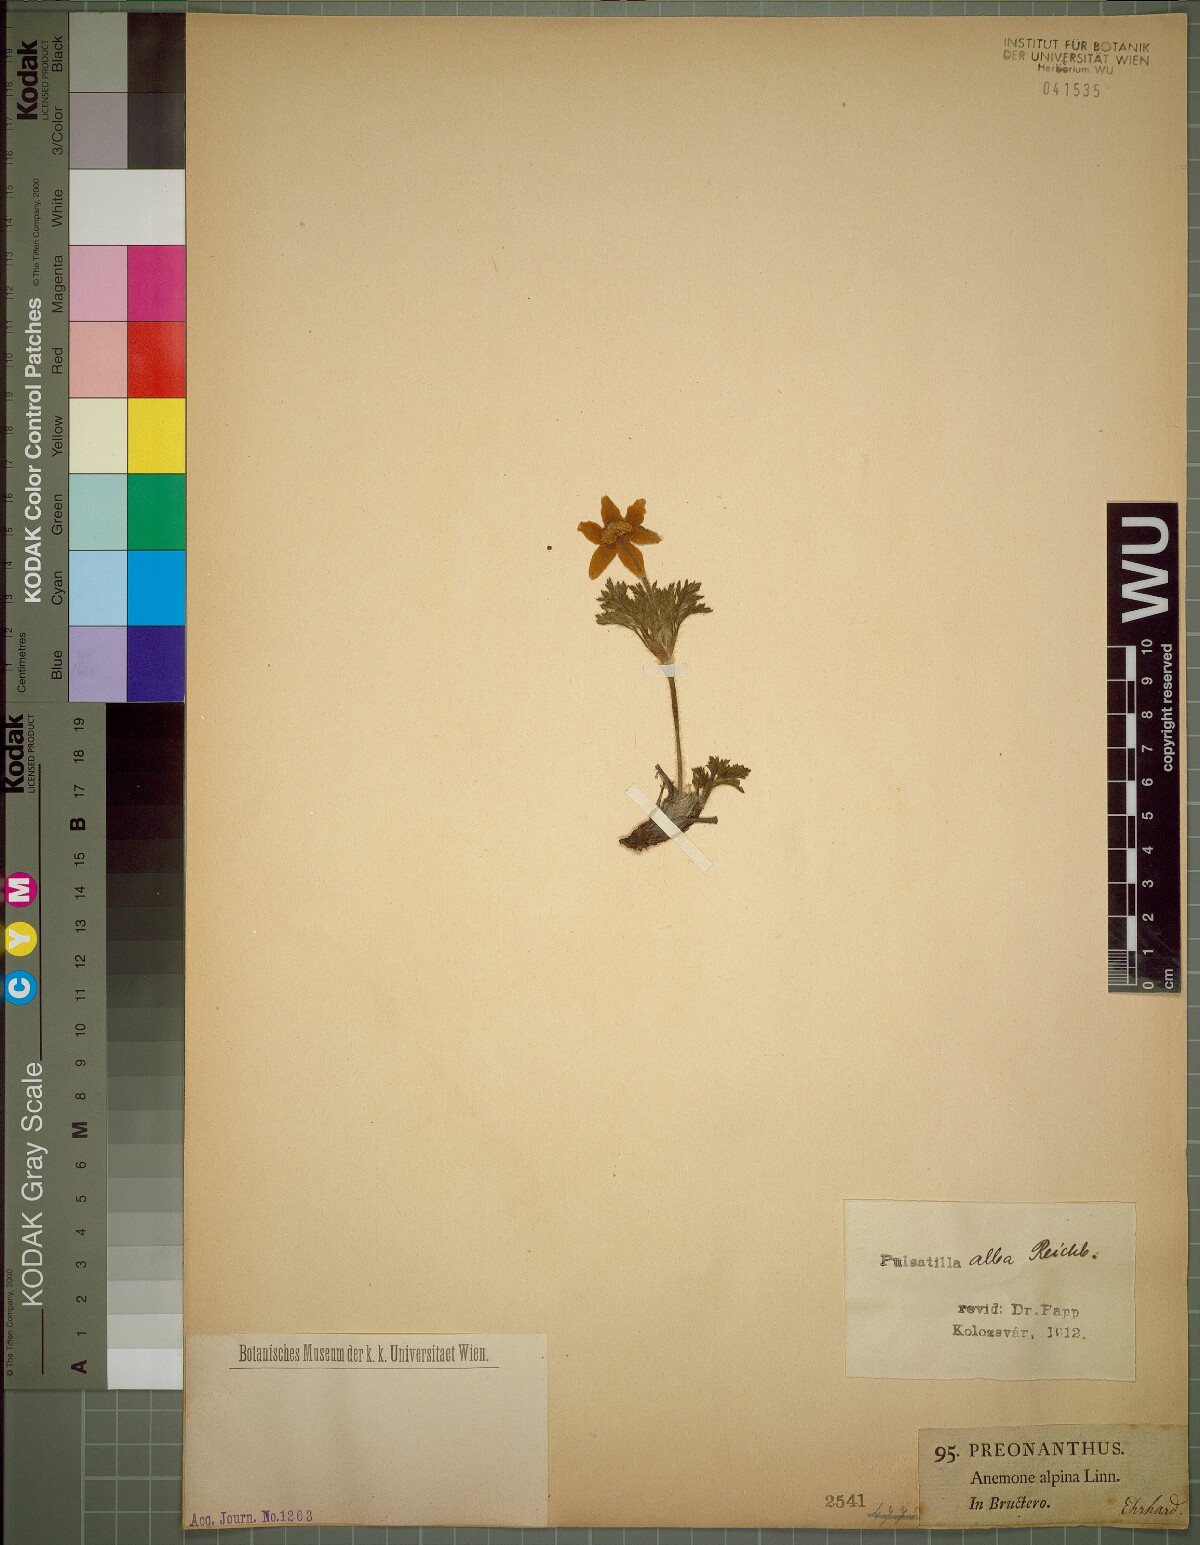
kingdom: Plantae
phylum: Tracheophyta
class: Magnoliopsida
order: Ranunculales
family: Ranunculaceae
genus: Pulsatilla
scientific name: Pulsatilla alpina
